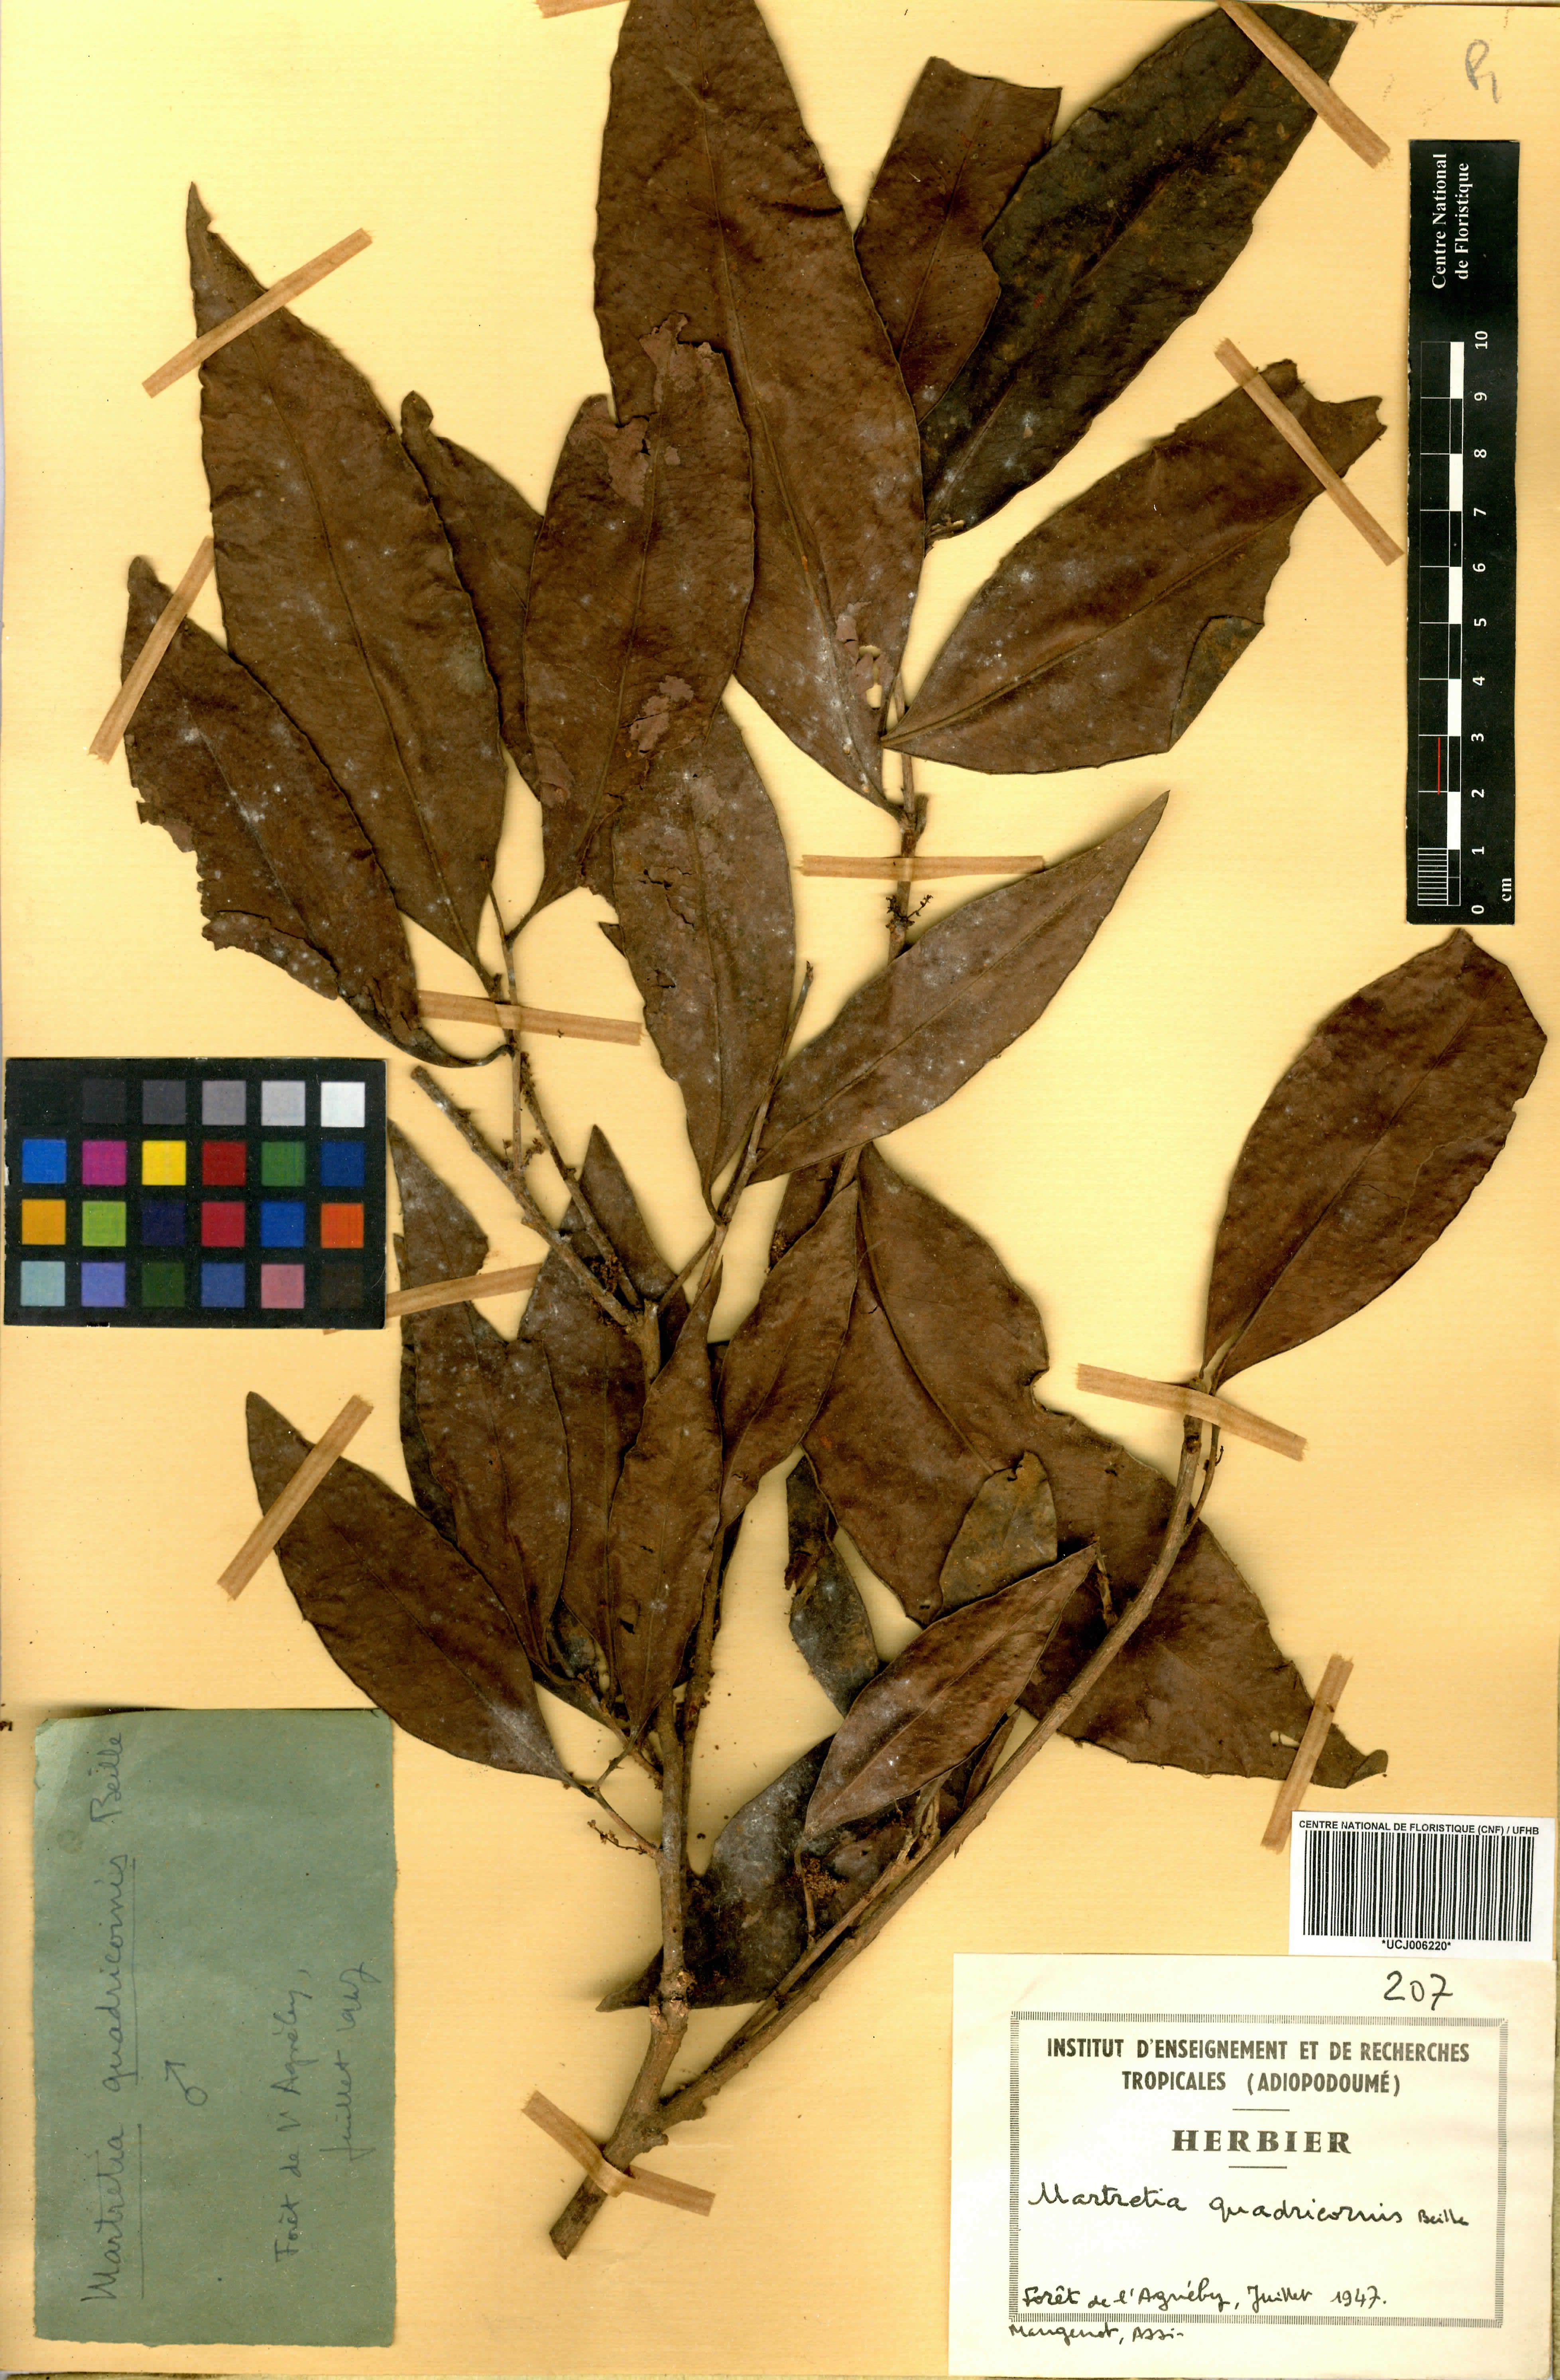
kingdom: Plantae
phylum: Tracheophyta
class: Magnoliopsida
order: Malpighiales
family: Phyllanthaceae
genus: Martretia
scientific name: Martretia quadricornis
